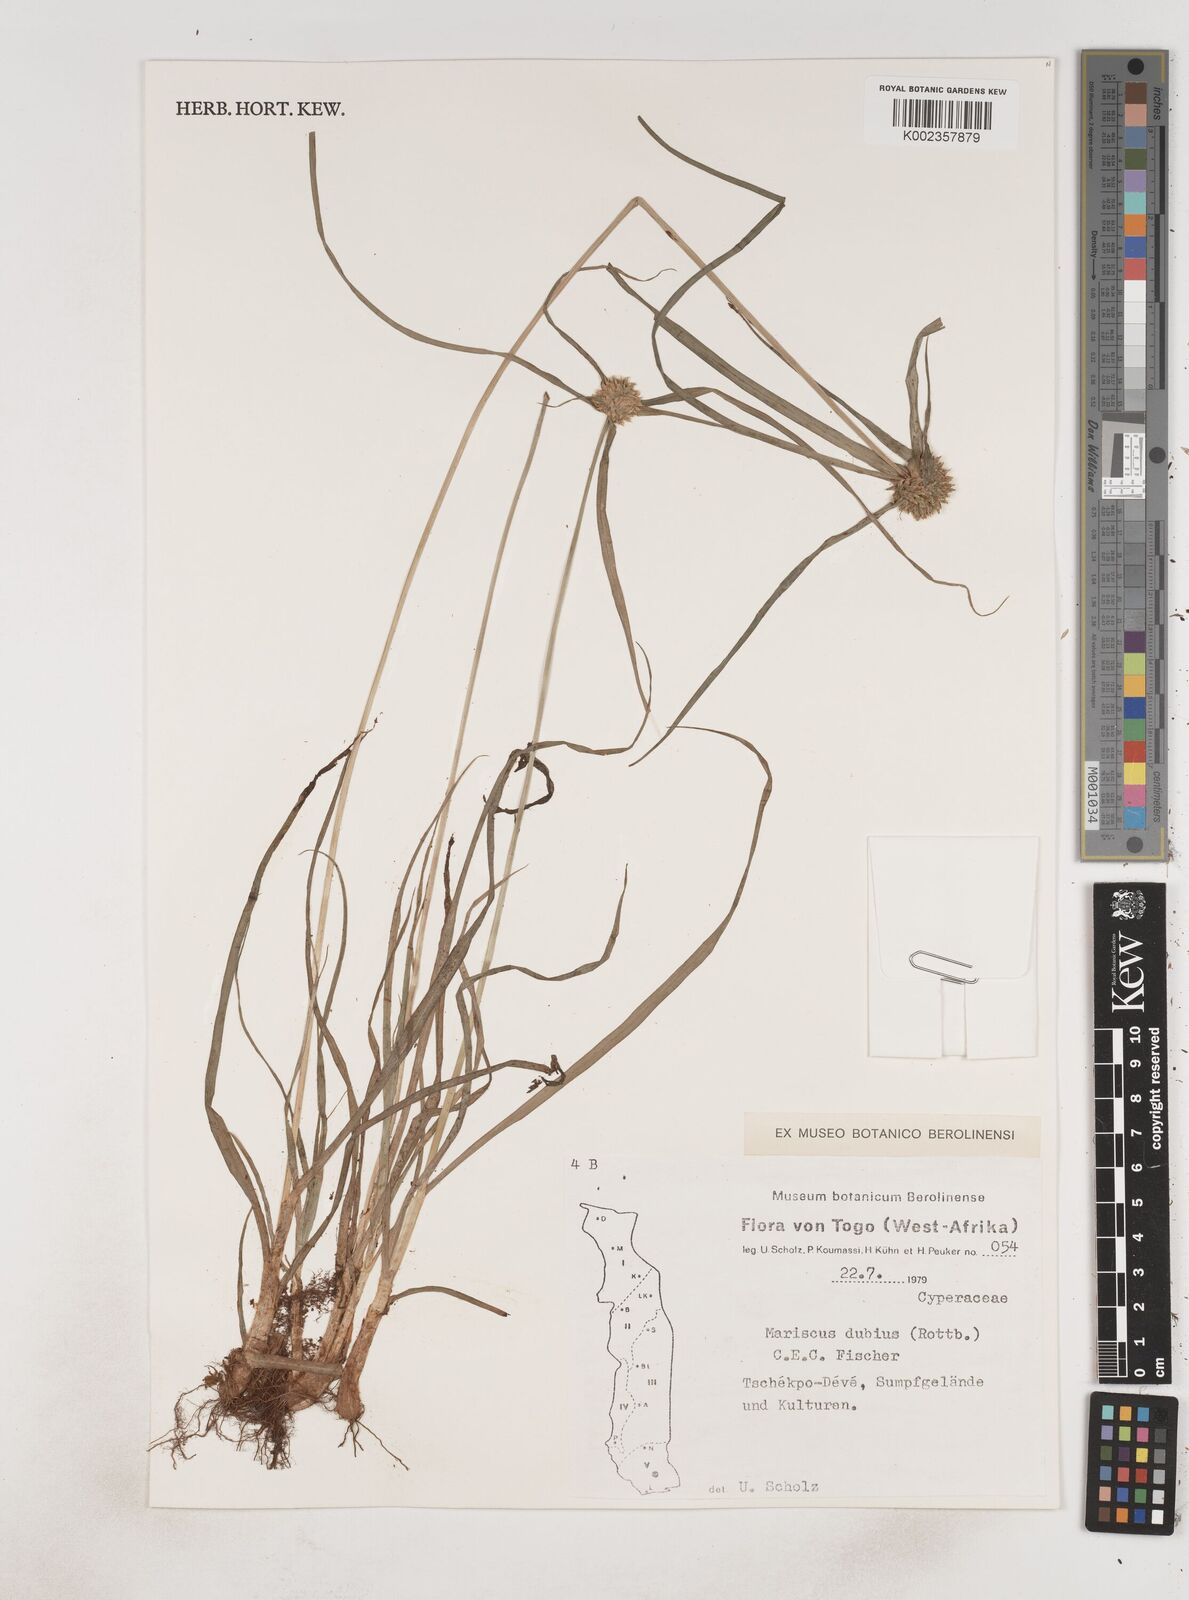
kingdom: Plantae
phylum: Tracheophyta
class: Liliopsida
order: Poales
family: Cyperaceae
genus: Cyperus
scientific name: Cyperus dubius
